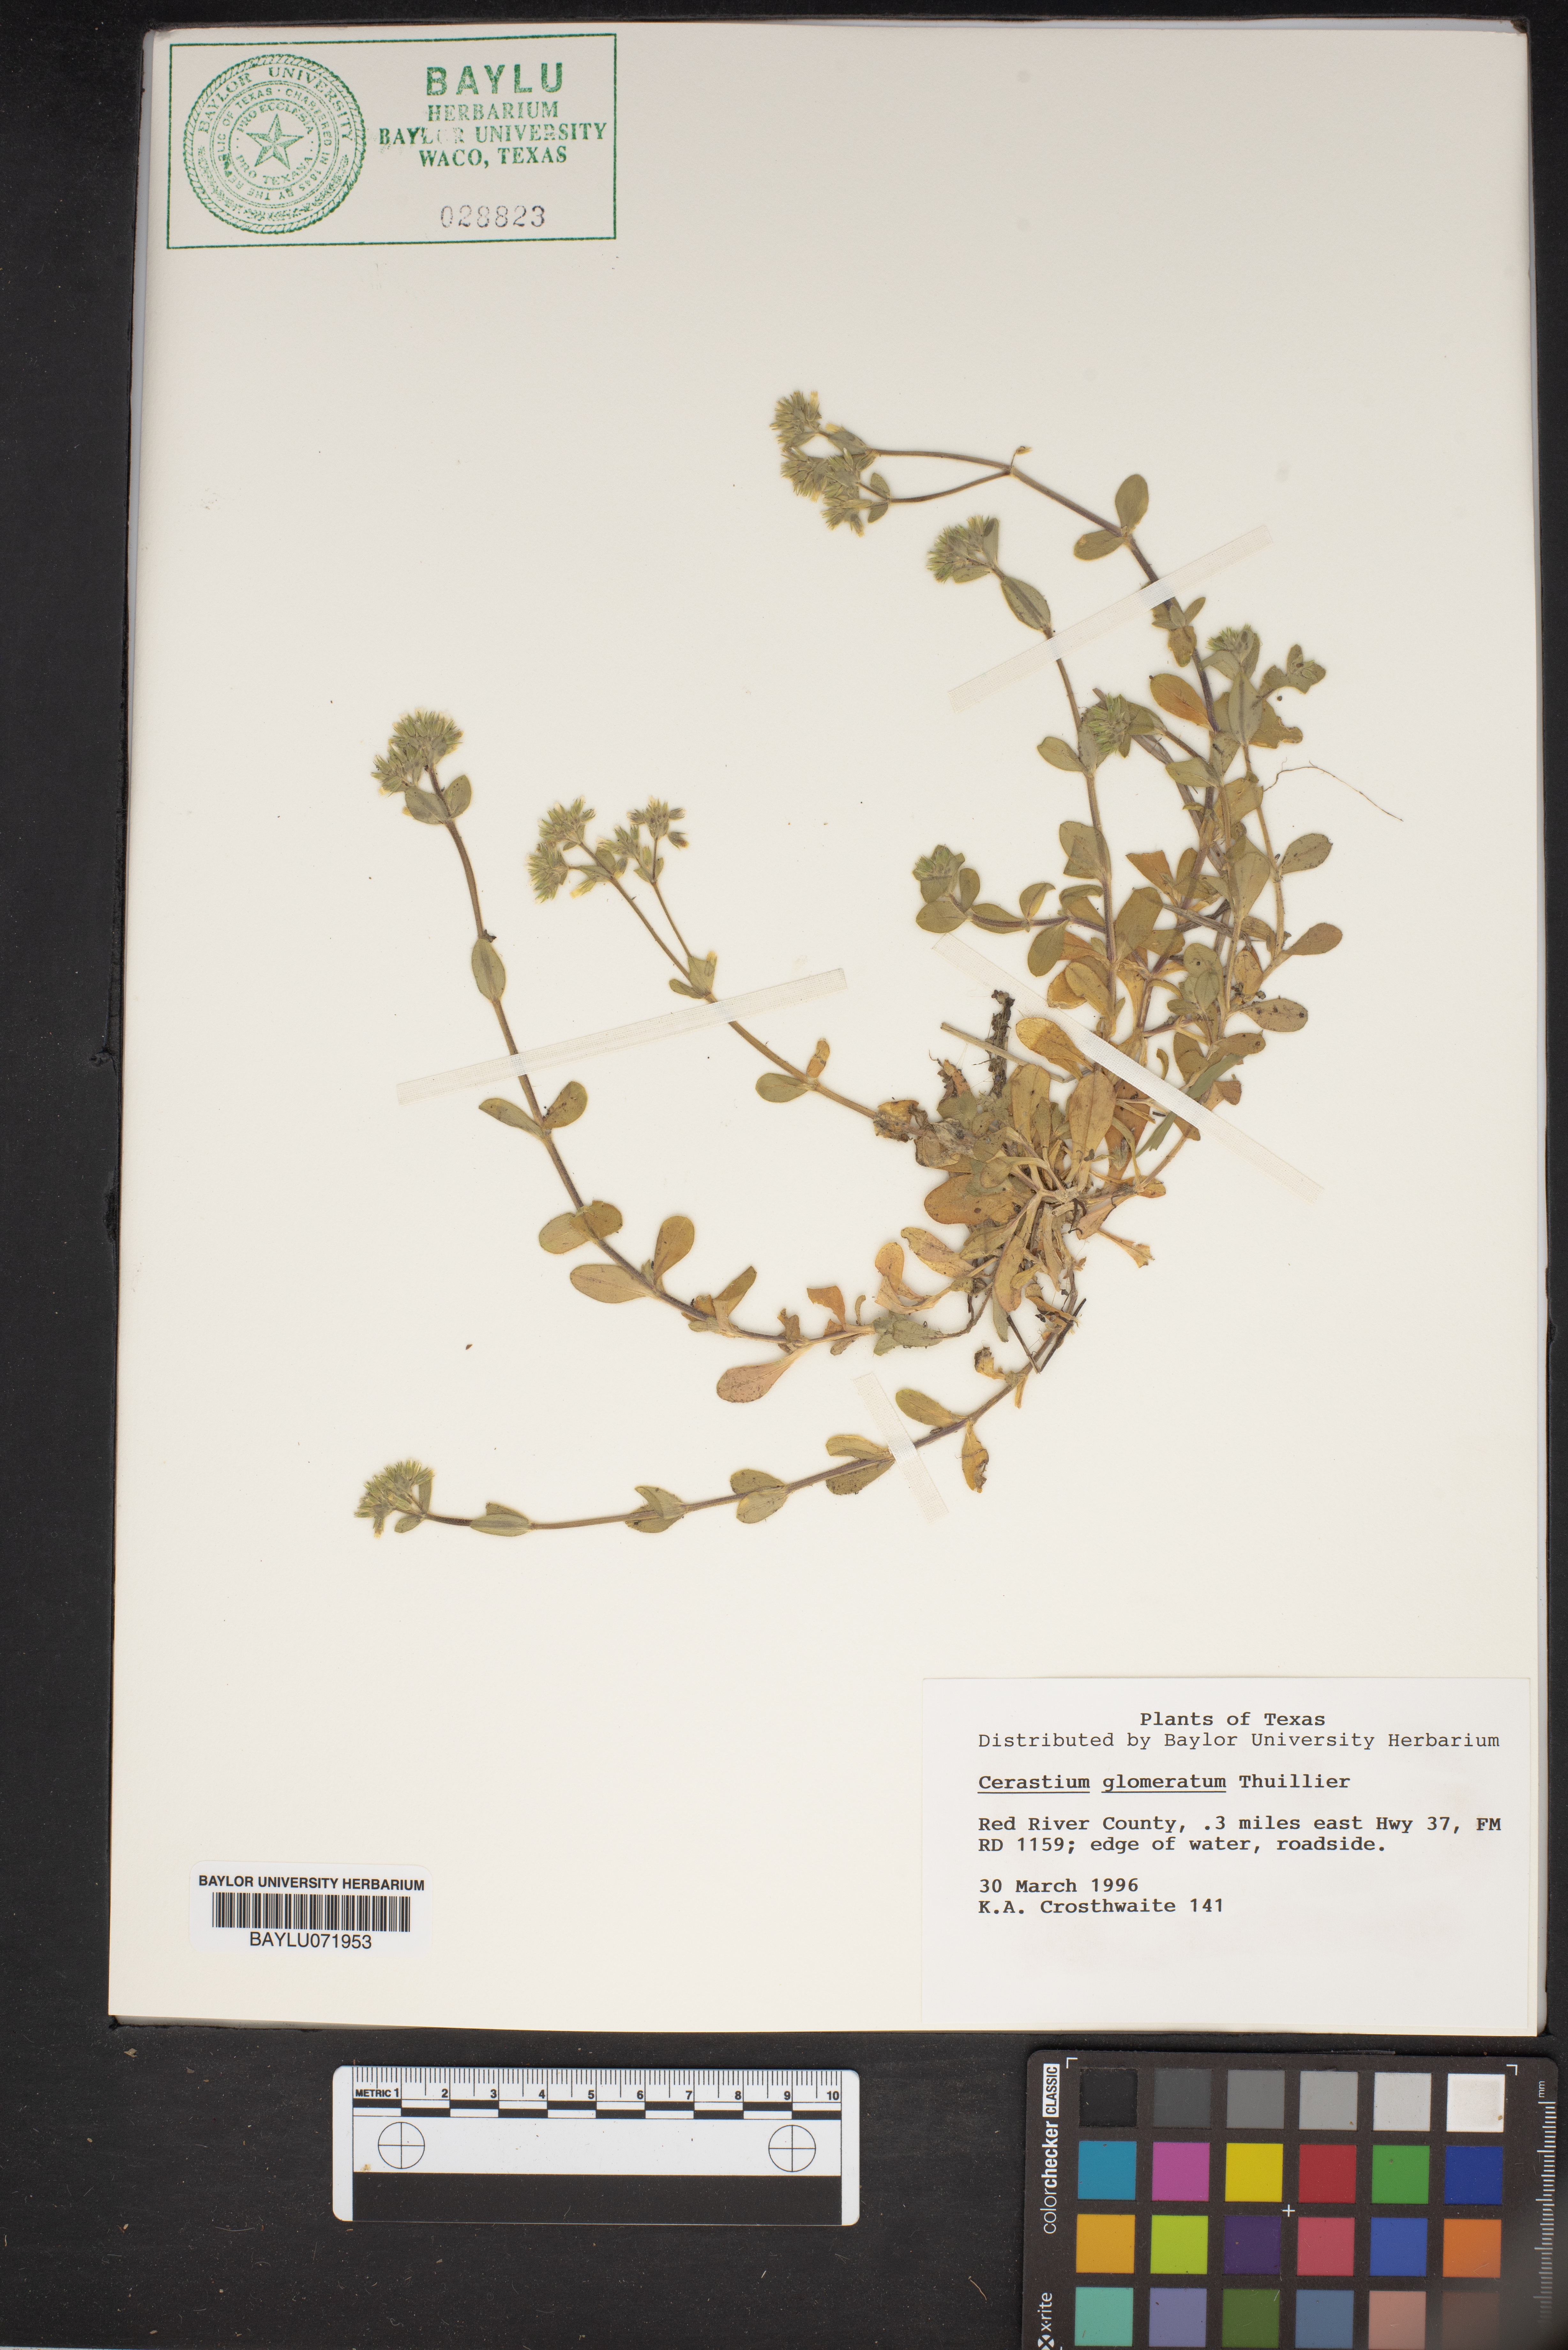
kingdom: Plantae
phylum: Tracheophyta
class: Magnoliopsida
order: Caryophyllales
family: Caryophyllaceae
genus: Cerastium
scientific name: Cerastium glomeratum
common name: Sticky chickweed
